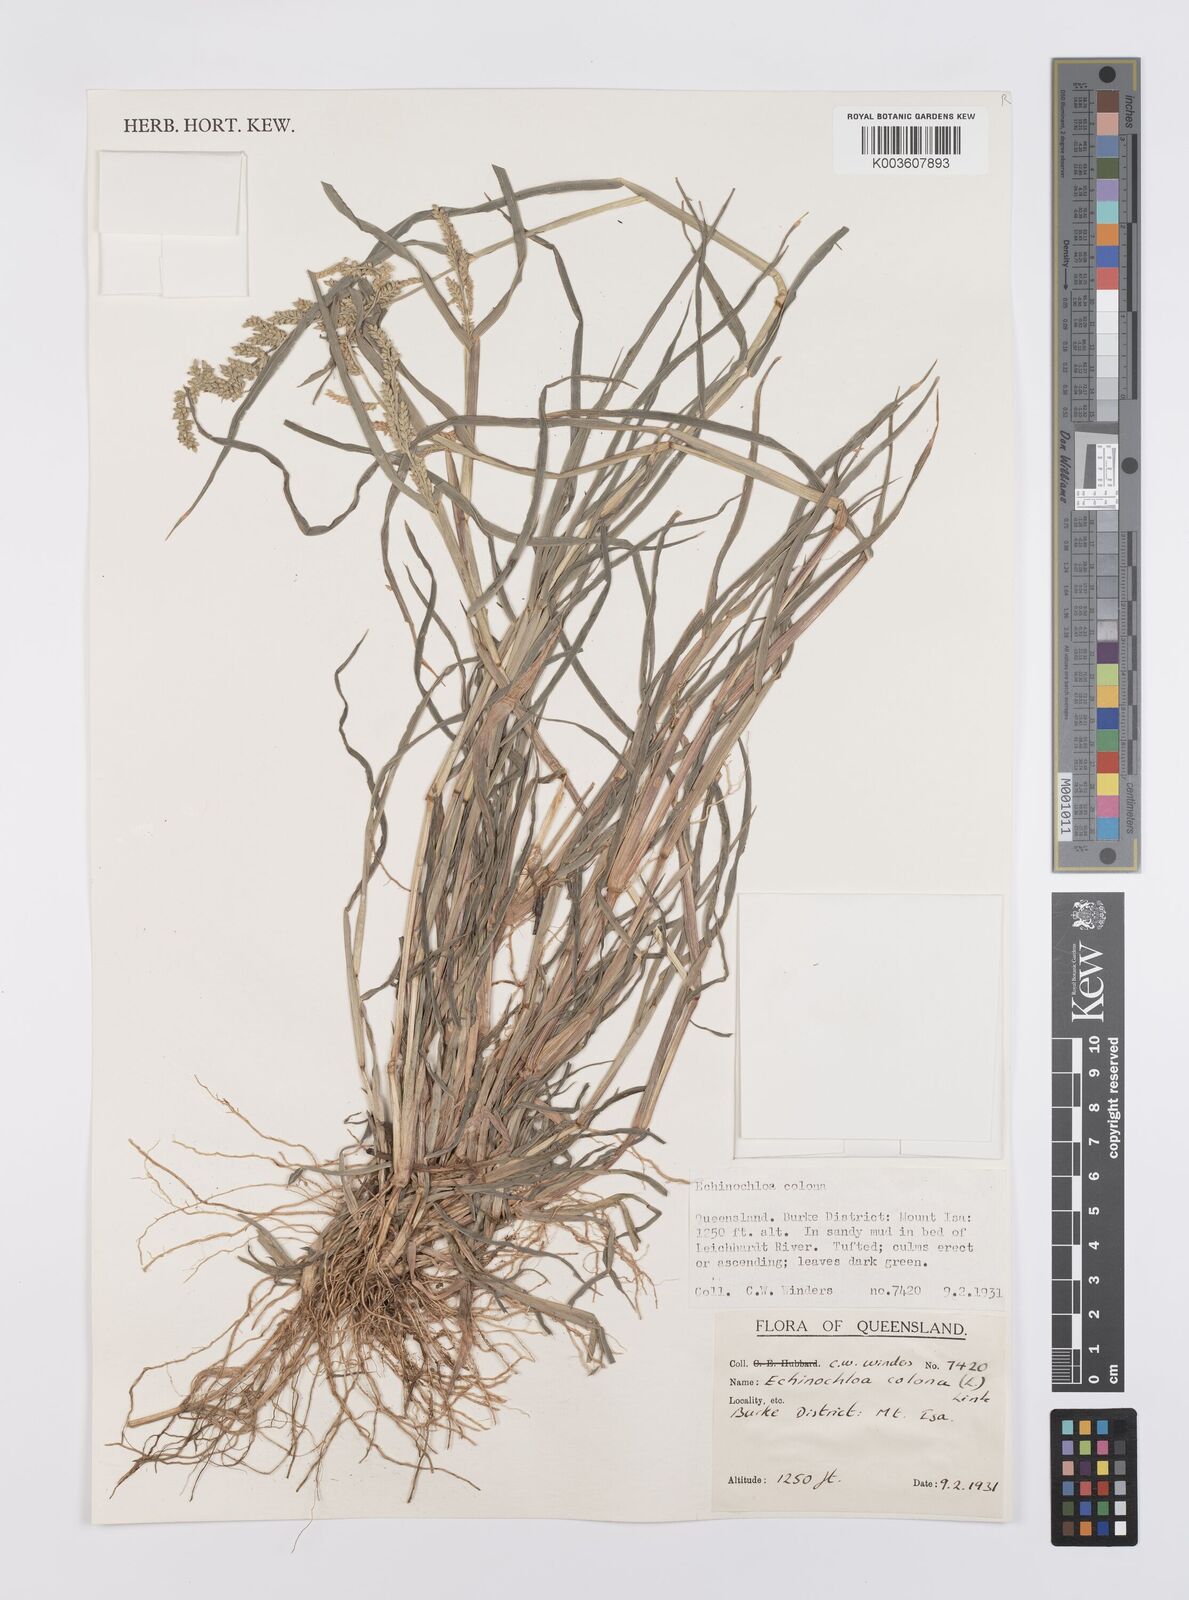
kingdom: Plantae
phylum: Tracheophyta
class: Liliopsida
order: Poales
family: Poaceae
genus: Echinochloa
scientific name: Echinochloa colonum
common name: Jungle rice
